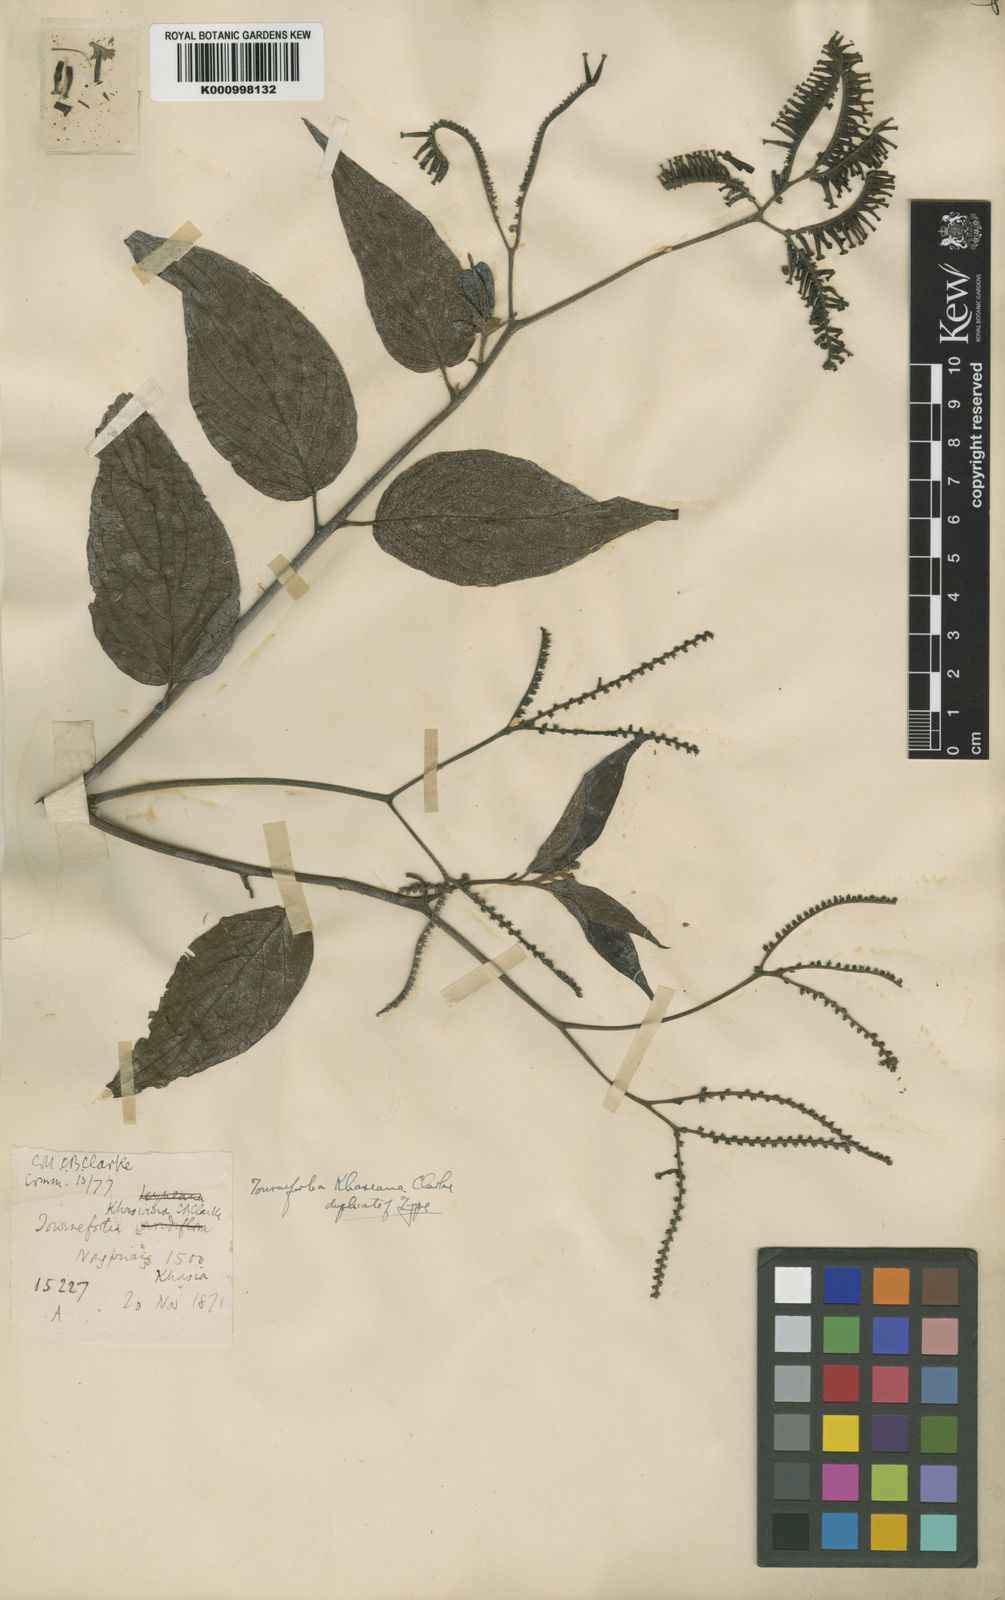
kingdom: Plantae
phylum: Tracheophyta
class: Magnoliopsida
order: Boraginales
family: Heliotropiaceae
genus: Tournefortia
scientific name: Tournefortia khasiana
